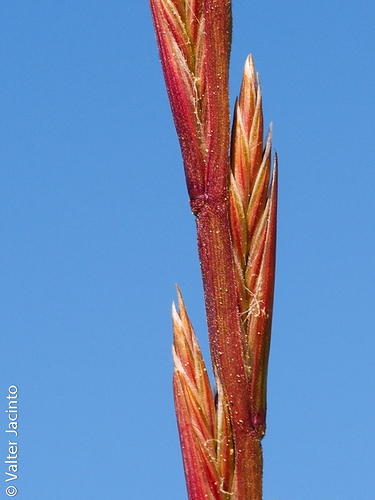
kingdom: Plantae
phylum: Tracheophyta
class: Liliopsida
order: Poales
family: Poaceae
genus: Lolium
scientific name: Lolium rigidum
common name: Wimmera ryegrass
